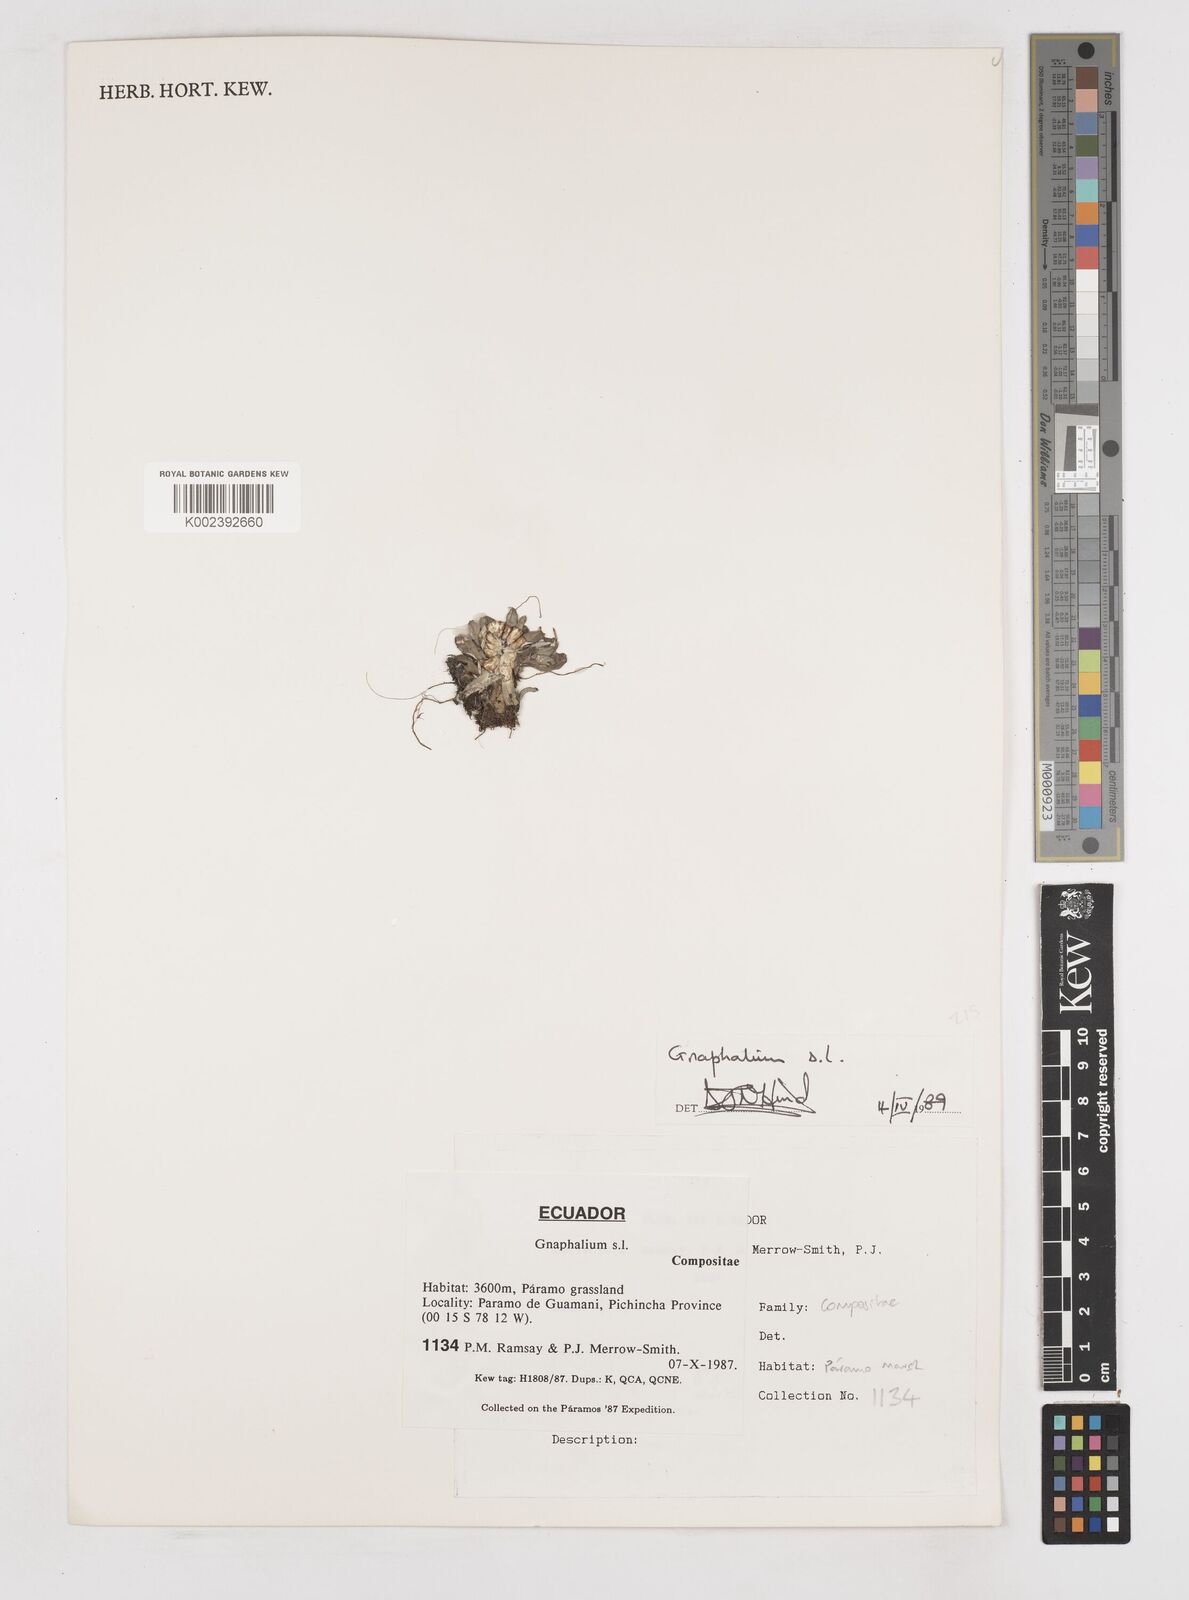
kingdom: Plantae
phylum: Tracheophyta
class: Magnoliopsida
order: Asterales
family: Asteraceae
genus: Gnaphalium
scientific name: Gnaphalium
